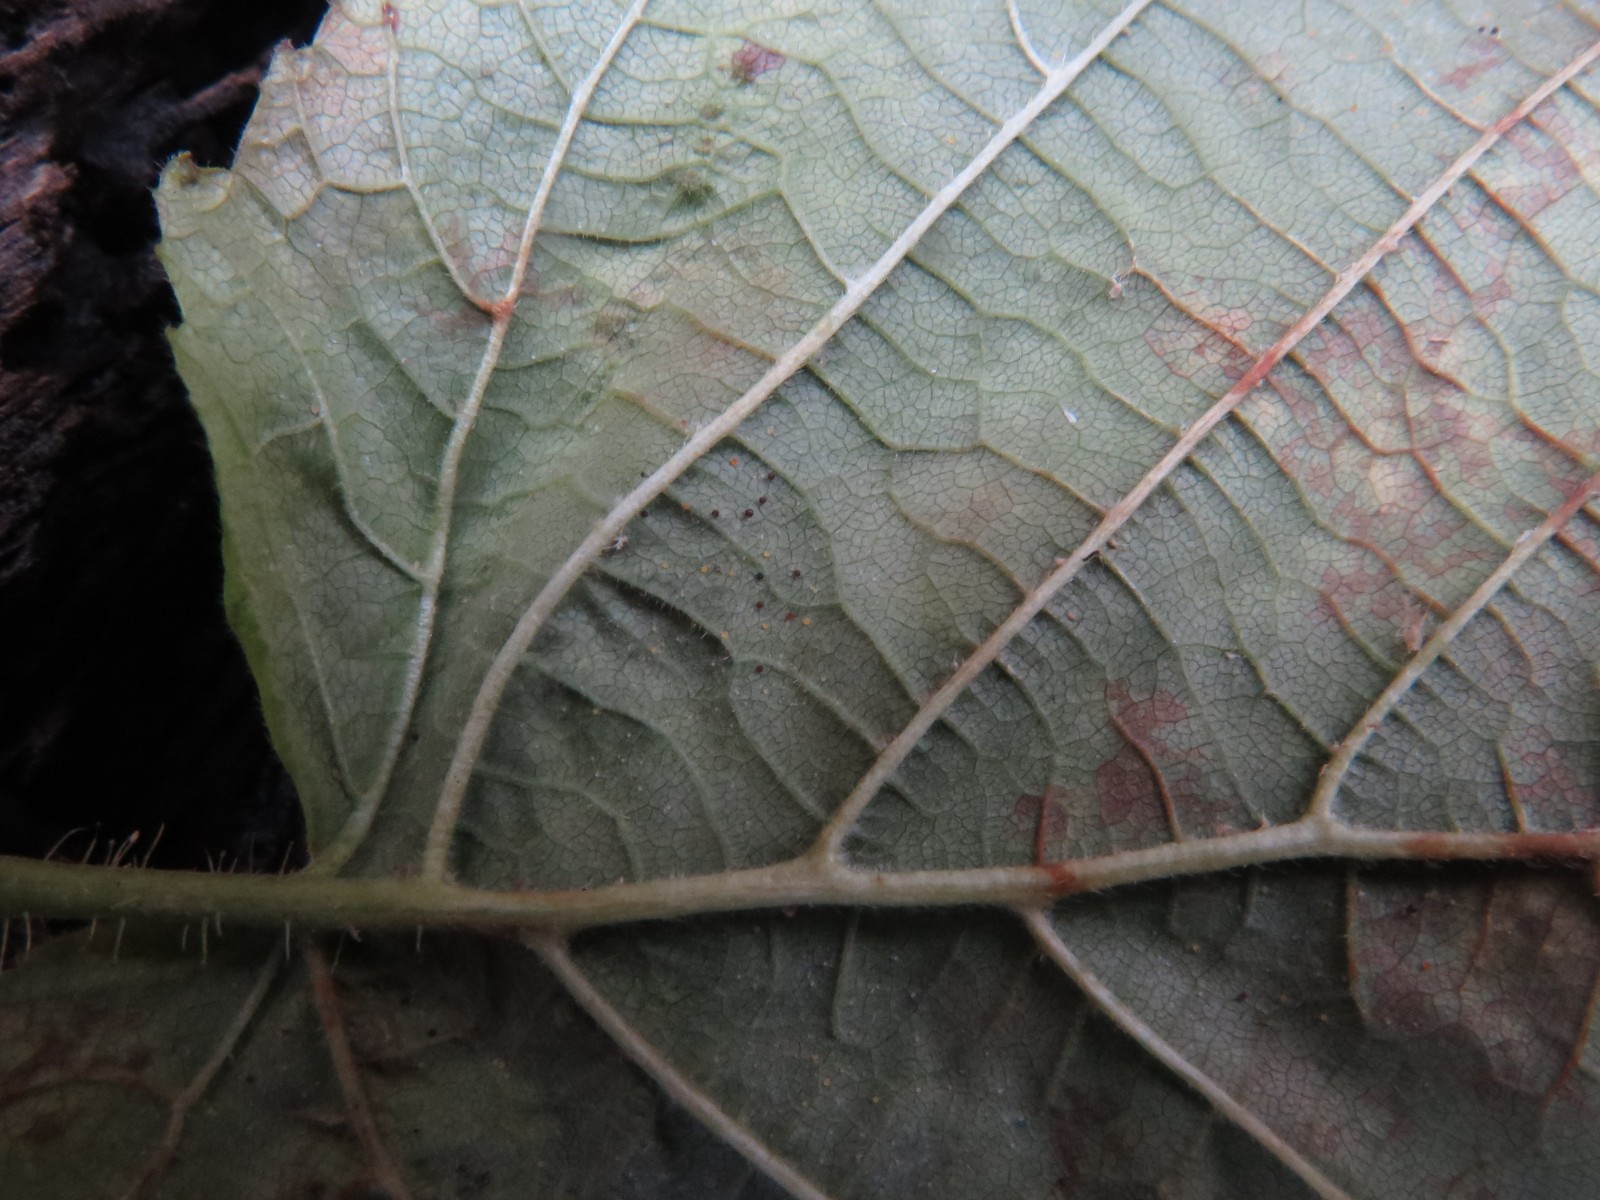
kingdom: Fungi
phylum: Ascomycota
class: Leotiomycetes
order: Helotiales
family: Erysiphaceae
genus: Phyllactinia
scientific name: Phyllactinia guttata
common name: hassel-meldug
